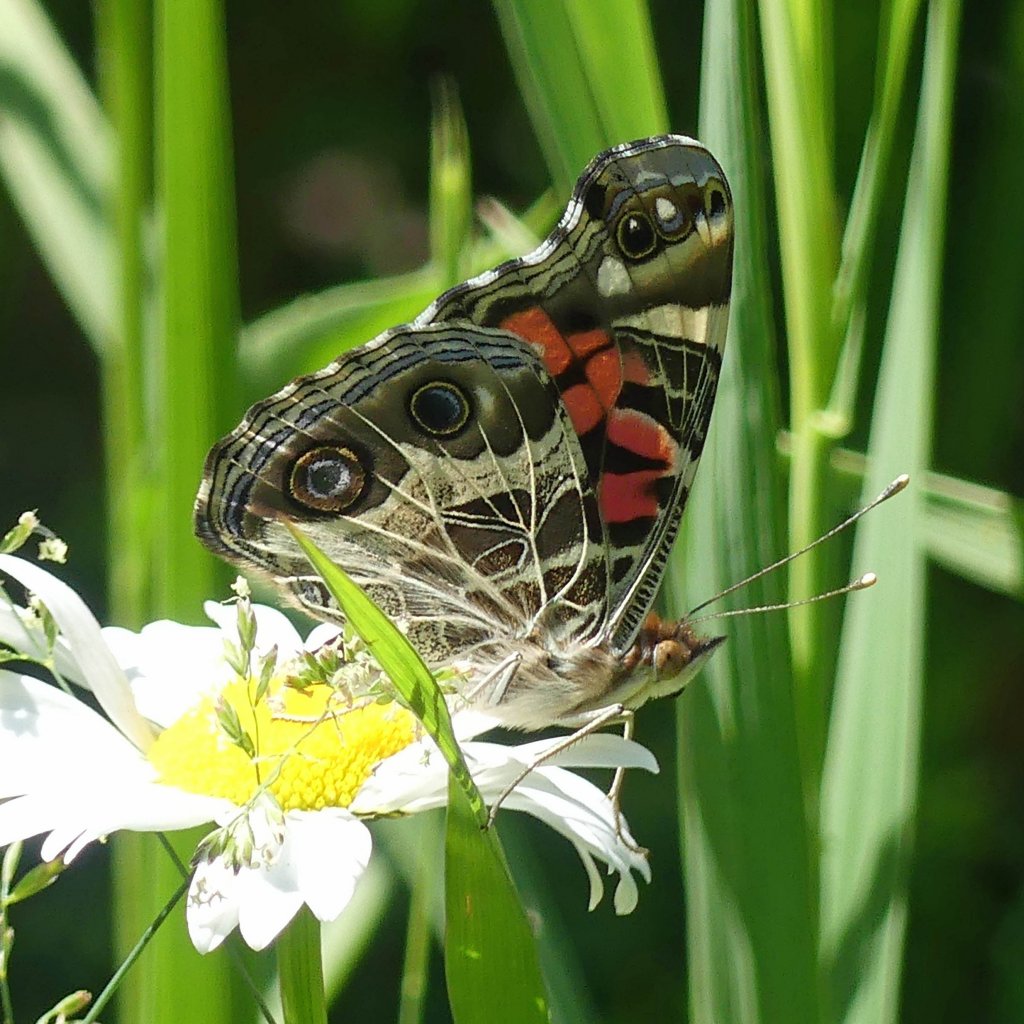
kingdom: Animalia
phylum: Arthropoda
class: Insecta
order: Lepidoptera
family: Nymphalidae
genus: Vanessa
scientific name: Vanessa virginiensis
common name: American Lady
